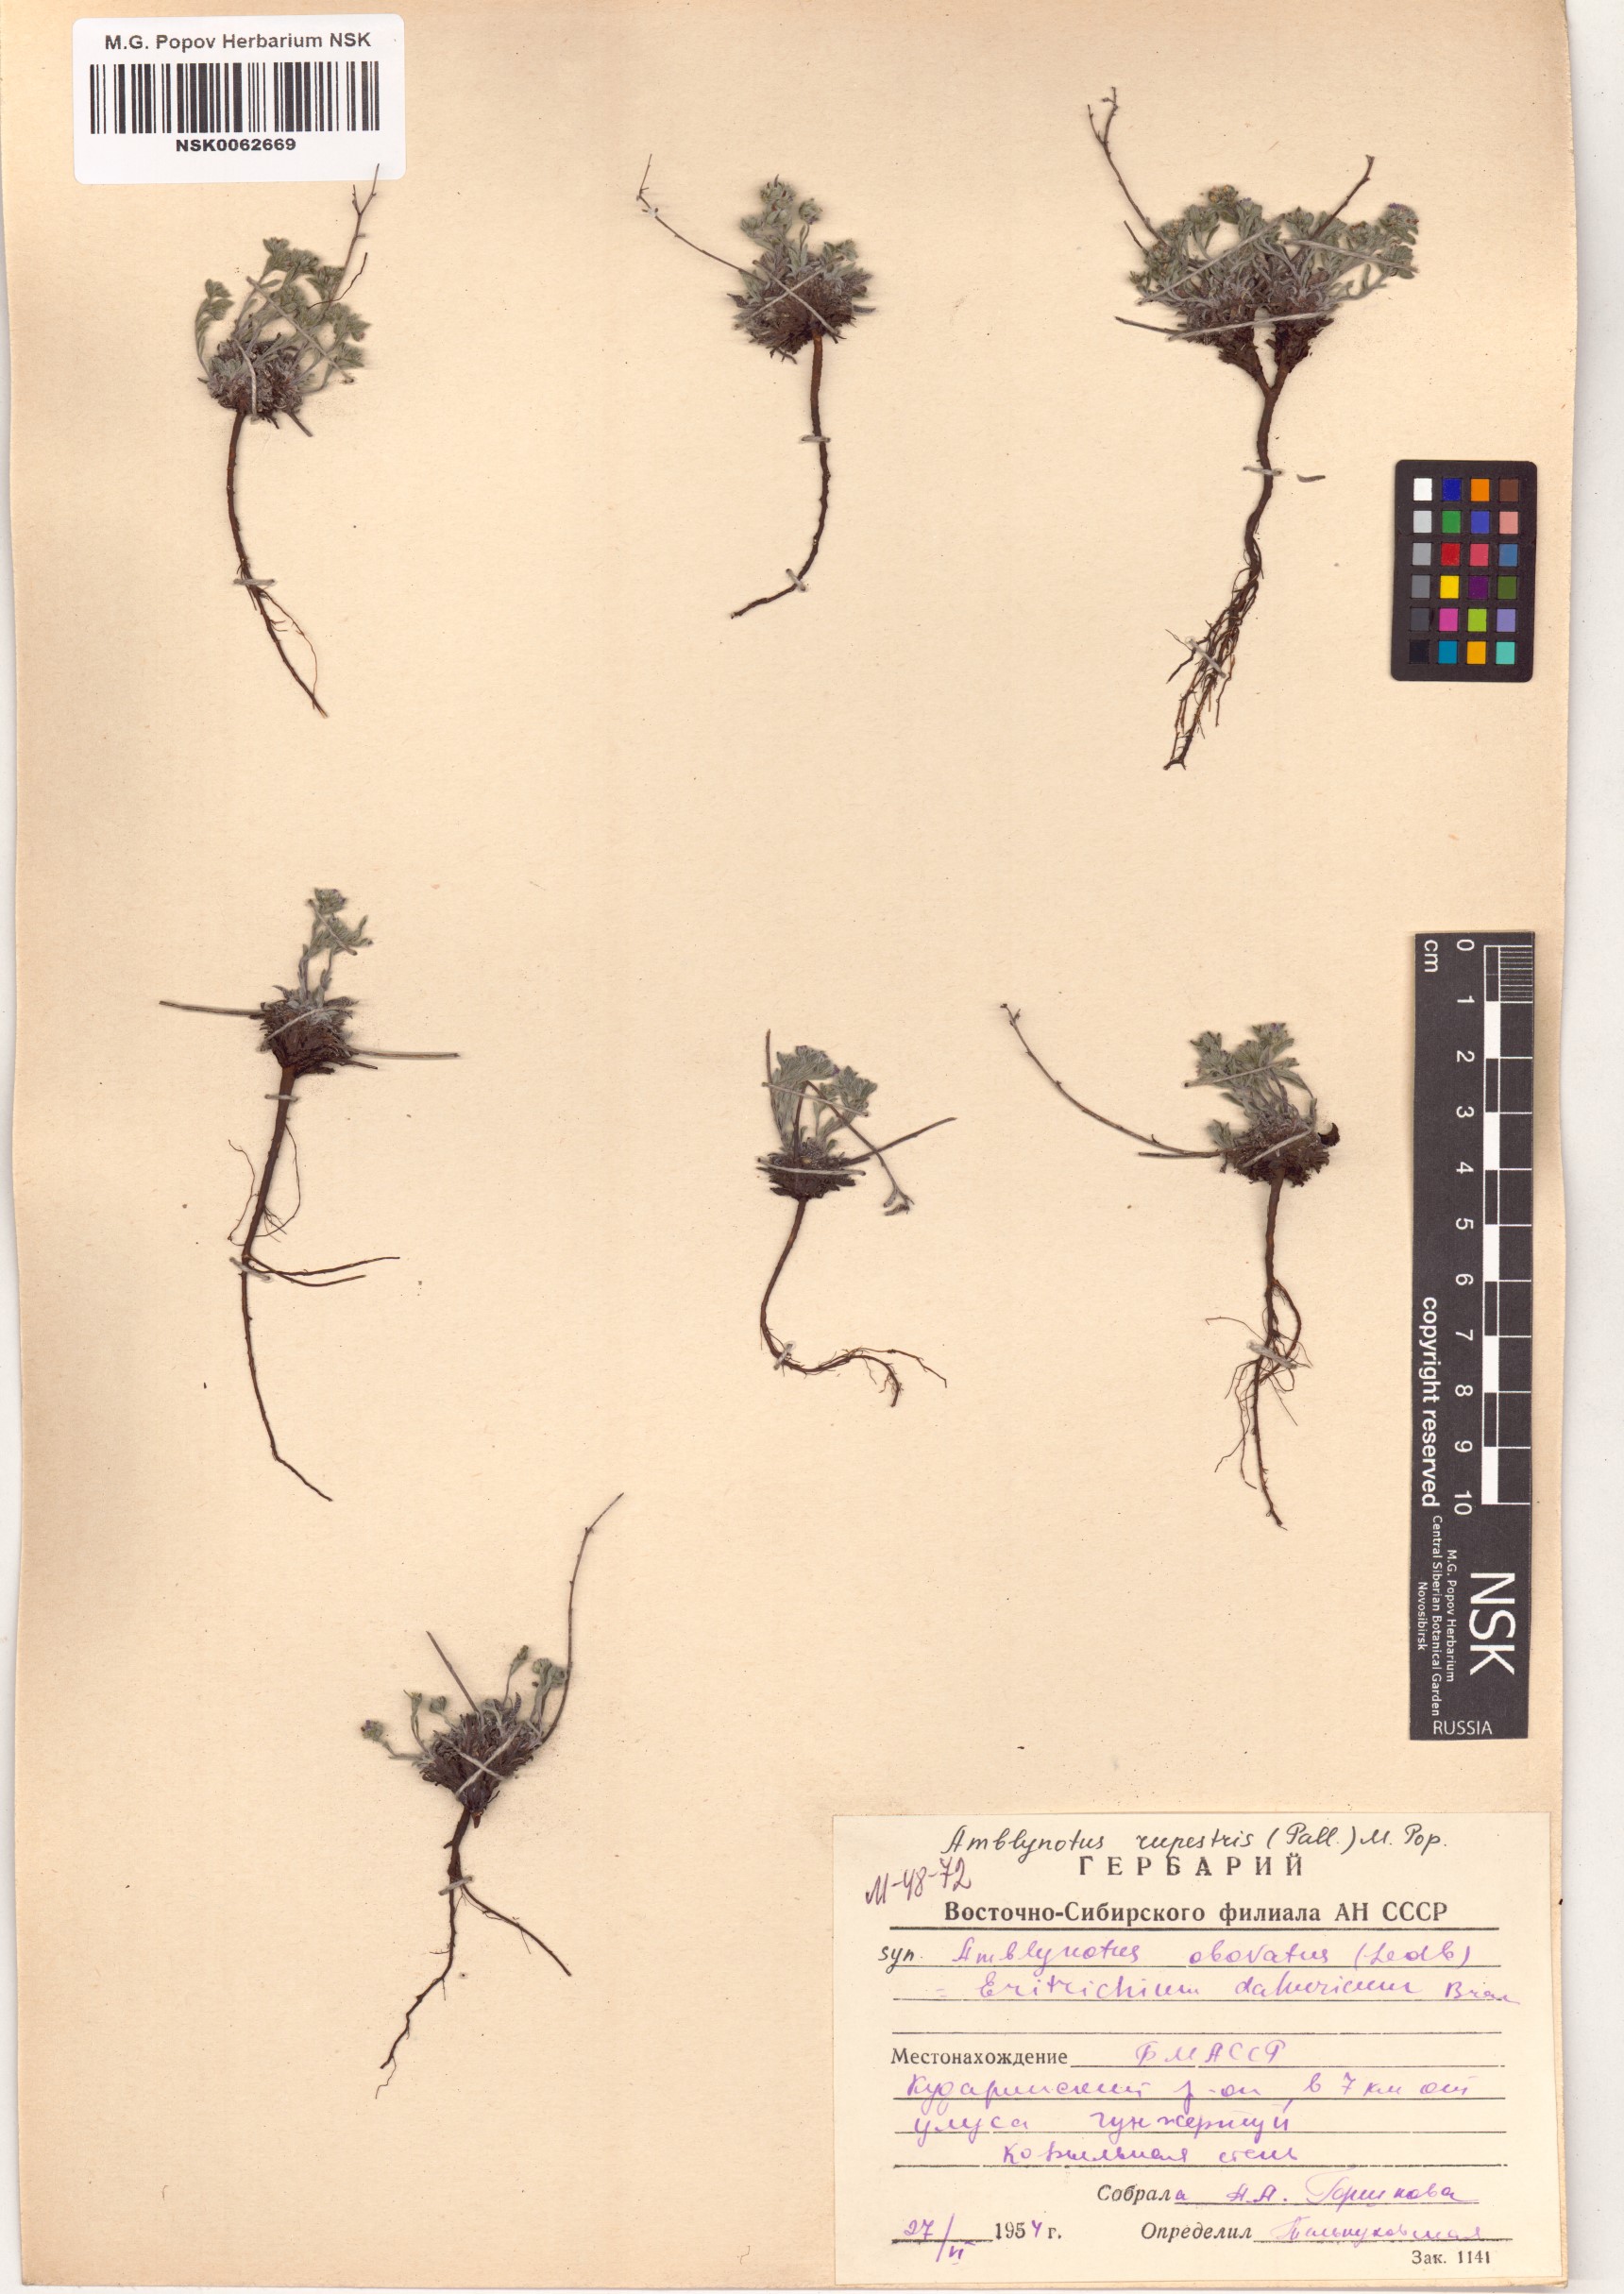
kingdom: Plantae
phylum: Tracheophyta
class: Magnoliopsida
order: Boraginales
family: Boraginaceae
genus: Eritrichium
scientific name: Eritrichium rupestre
